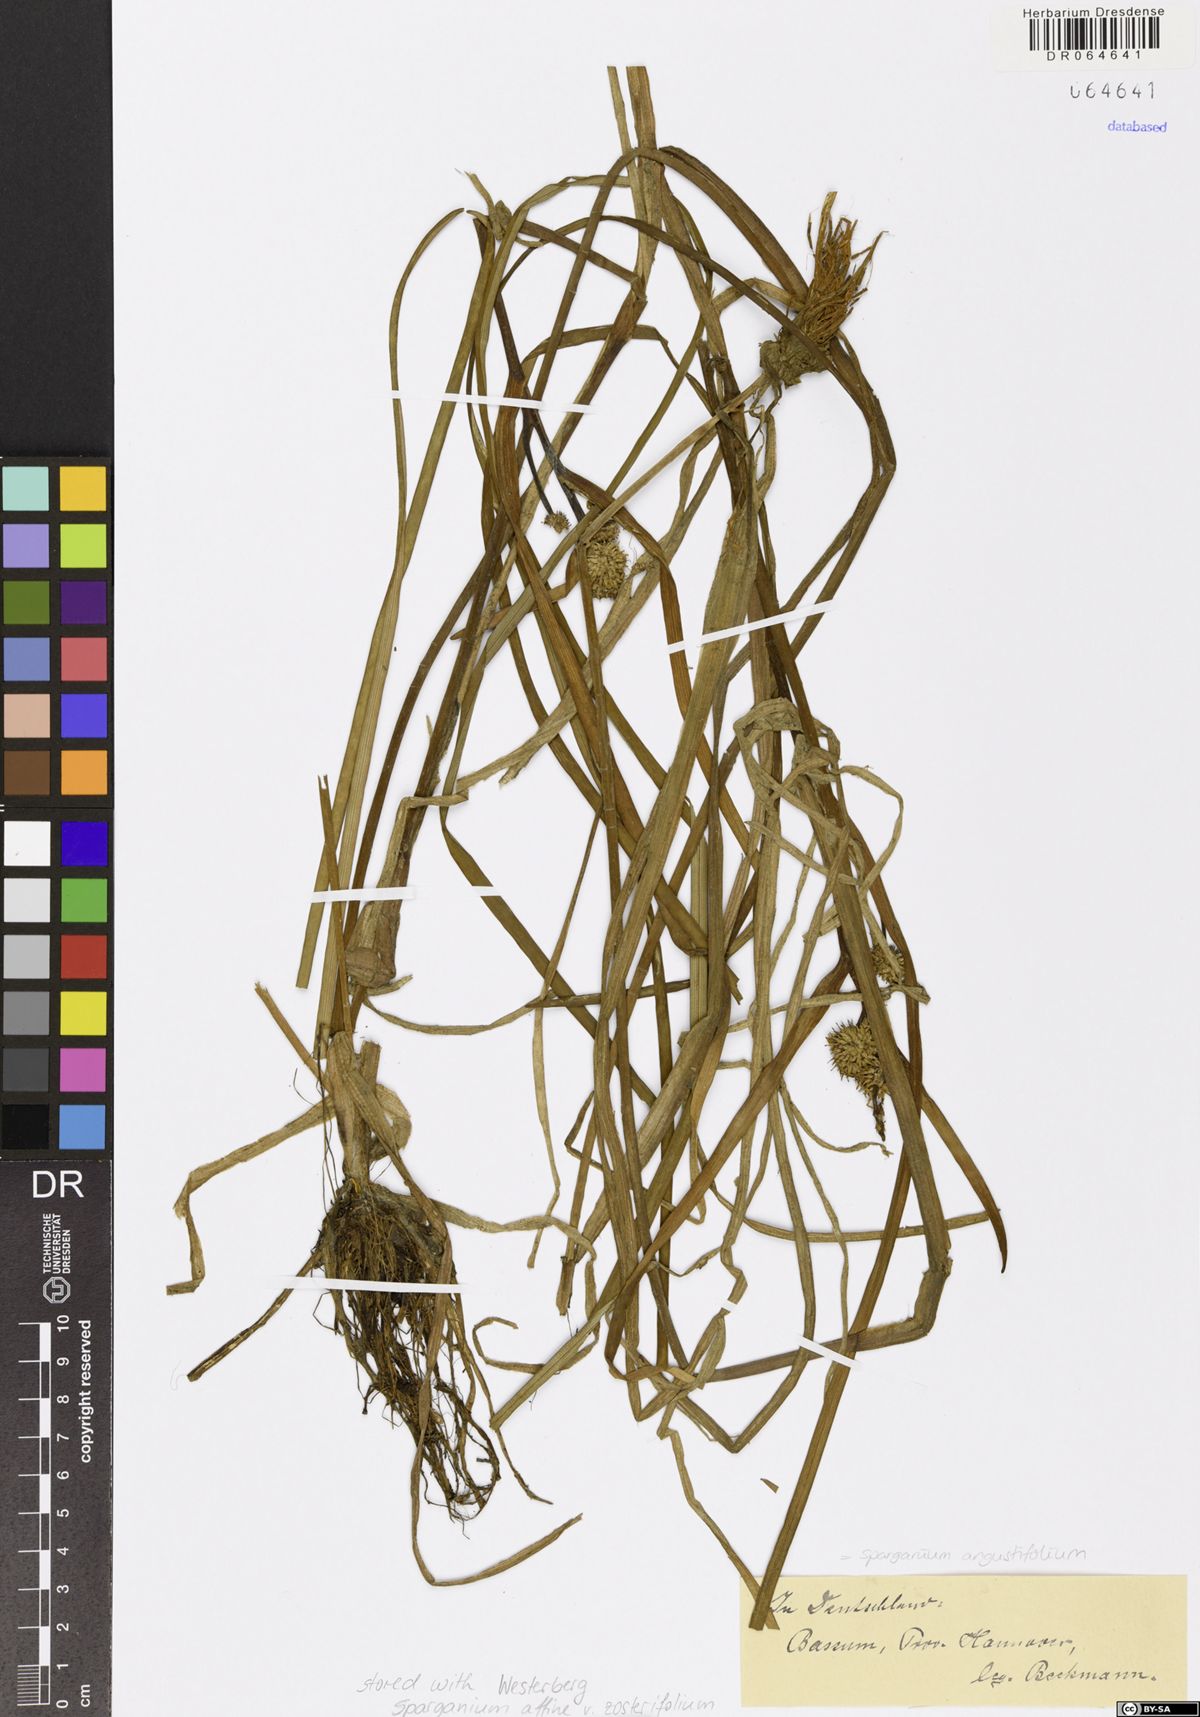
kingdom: Plantae
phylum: Tracheophyta
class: Liliopsida
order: Poales
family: Typhaceae
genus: Sparganium
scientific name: Sparganium angustifolium
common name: Floating bur-reed
